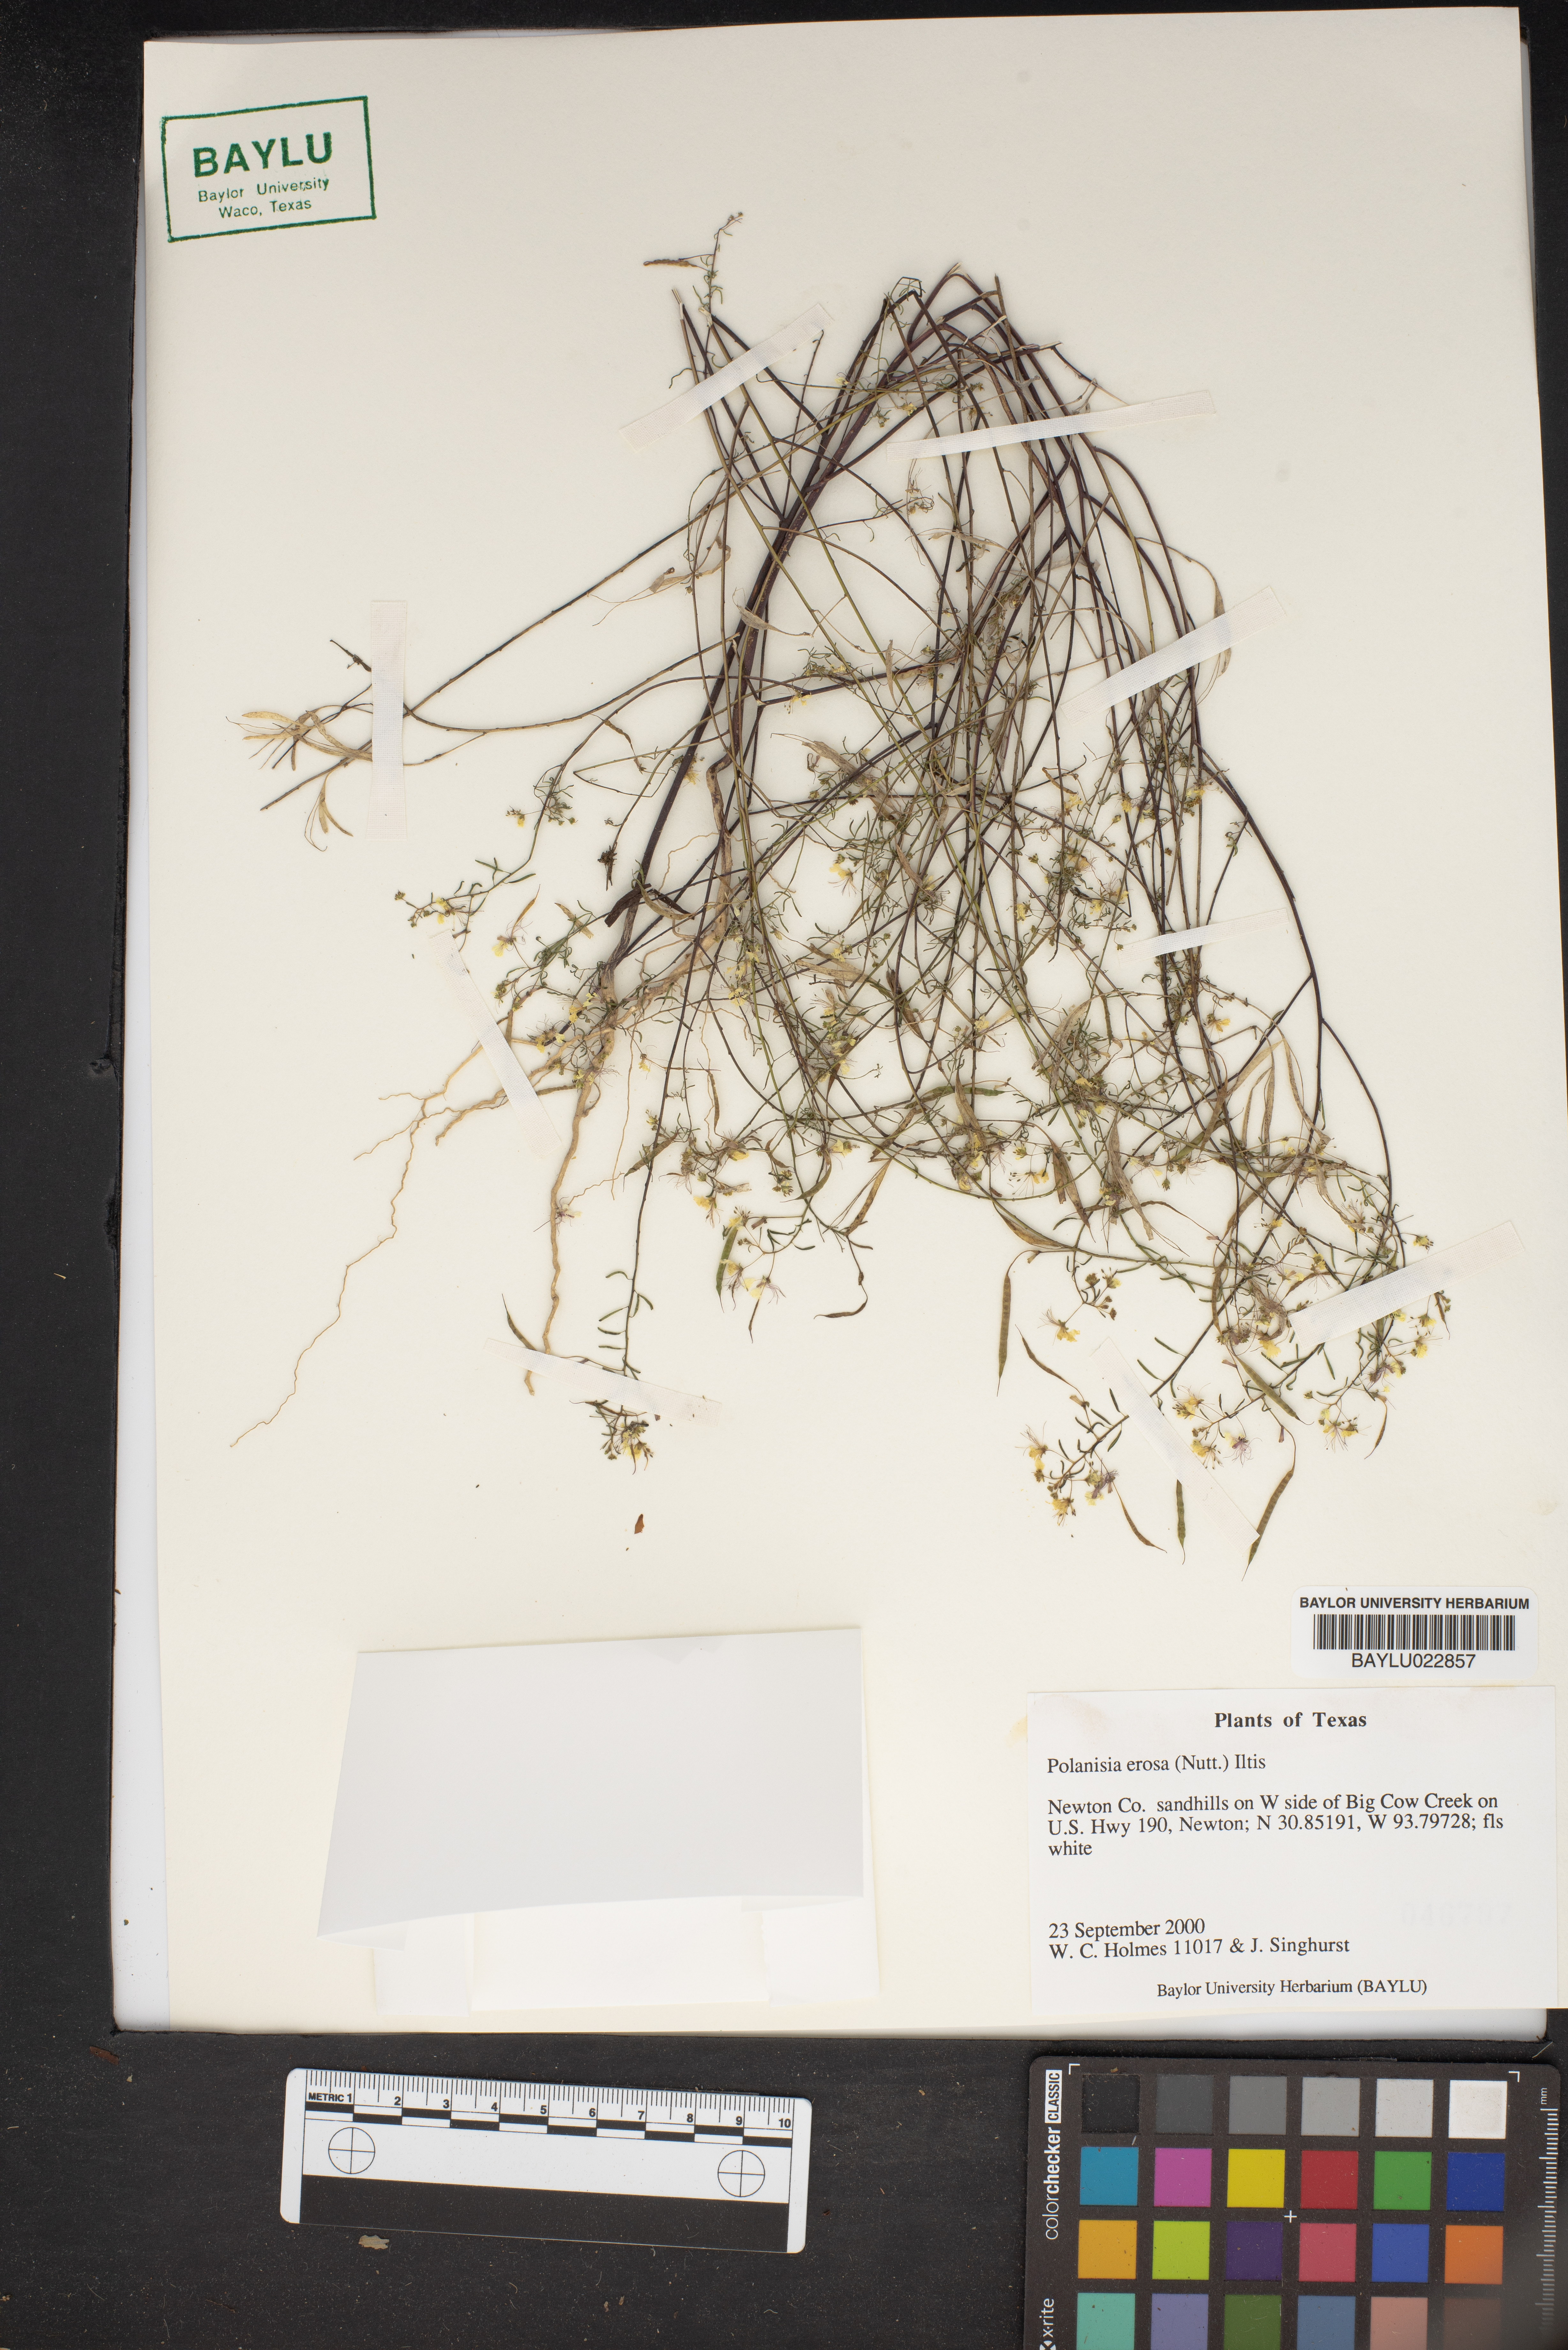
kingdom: Plantae
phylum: Tracheophyta
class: Magnoliopsida
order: Brassicales
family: Cleomaceae
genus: Polanisia
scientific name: Polanisia erosa
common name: Large clammyweed
